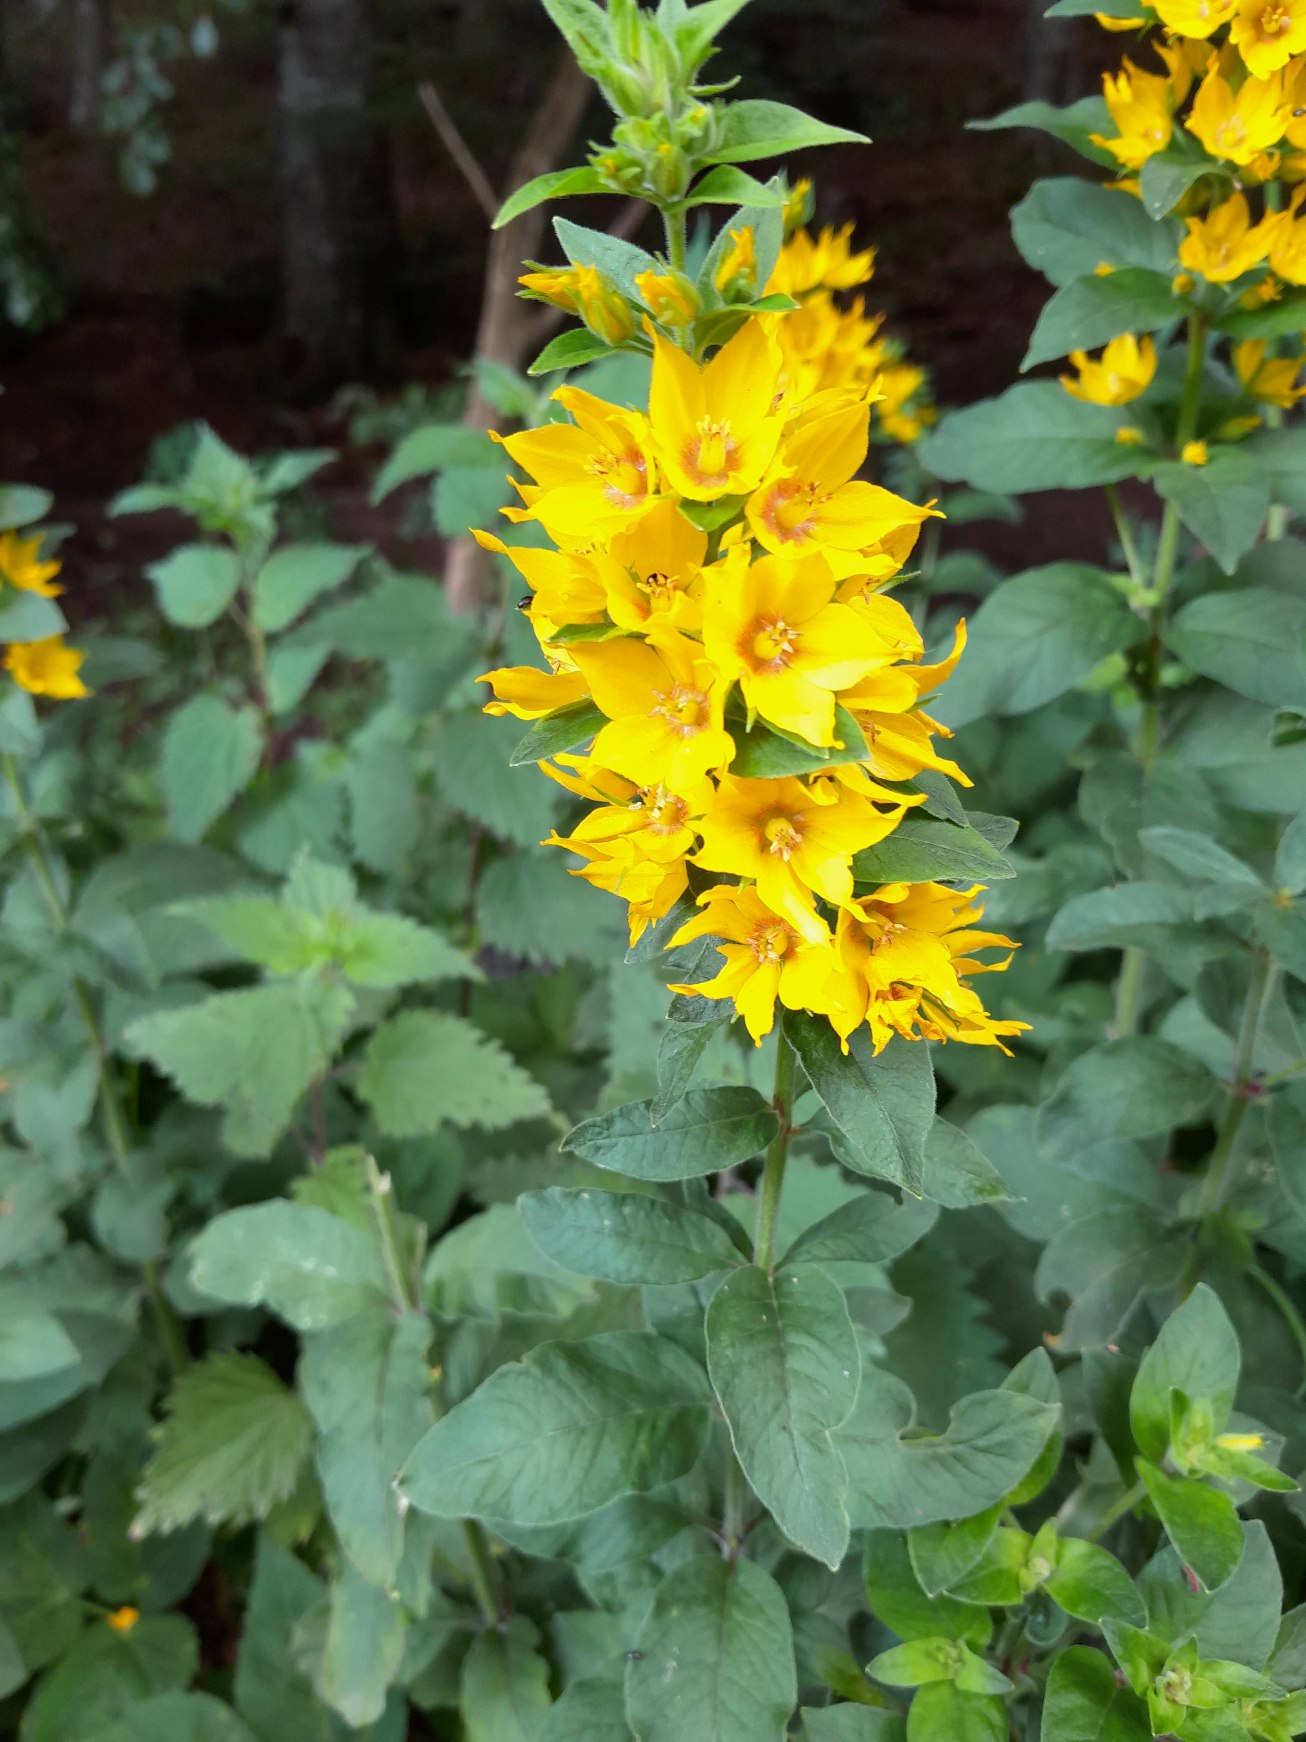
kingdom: Plantae
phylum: Tracheophyta
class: Magnoliopsida
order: Ericales
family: Primulaceae
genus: Lysimachia
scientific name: Lysimachia punctata
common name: Prikbladet fredløs
